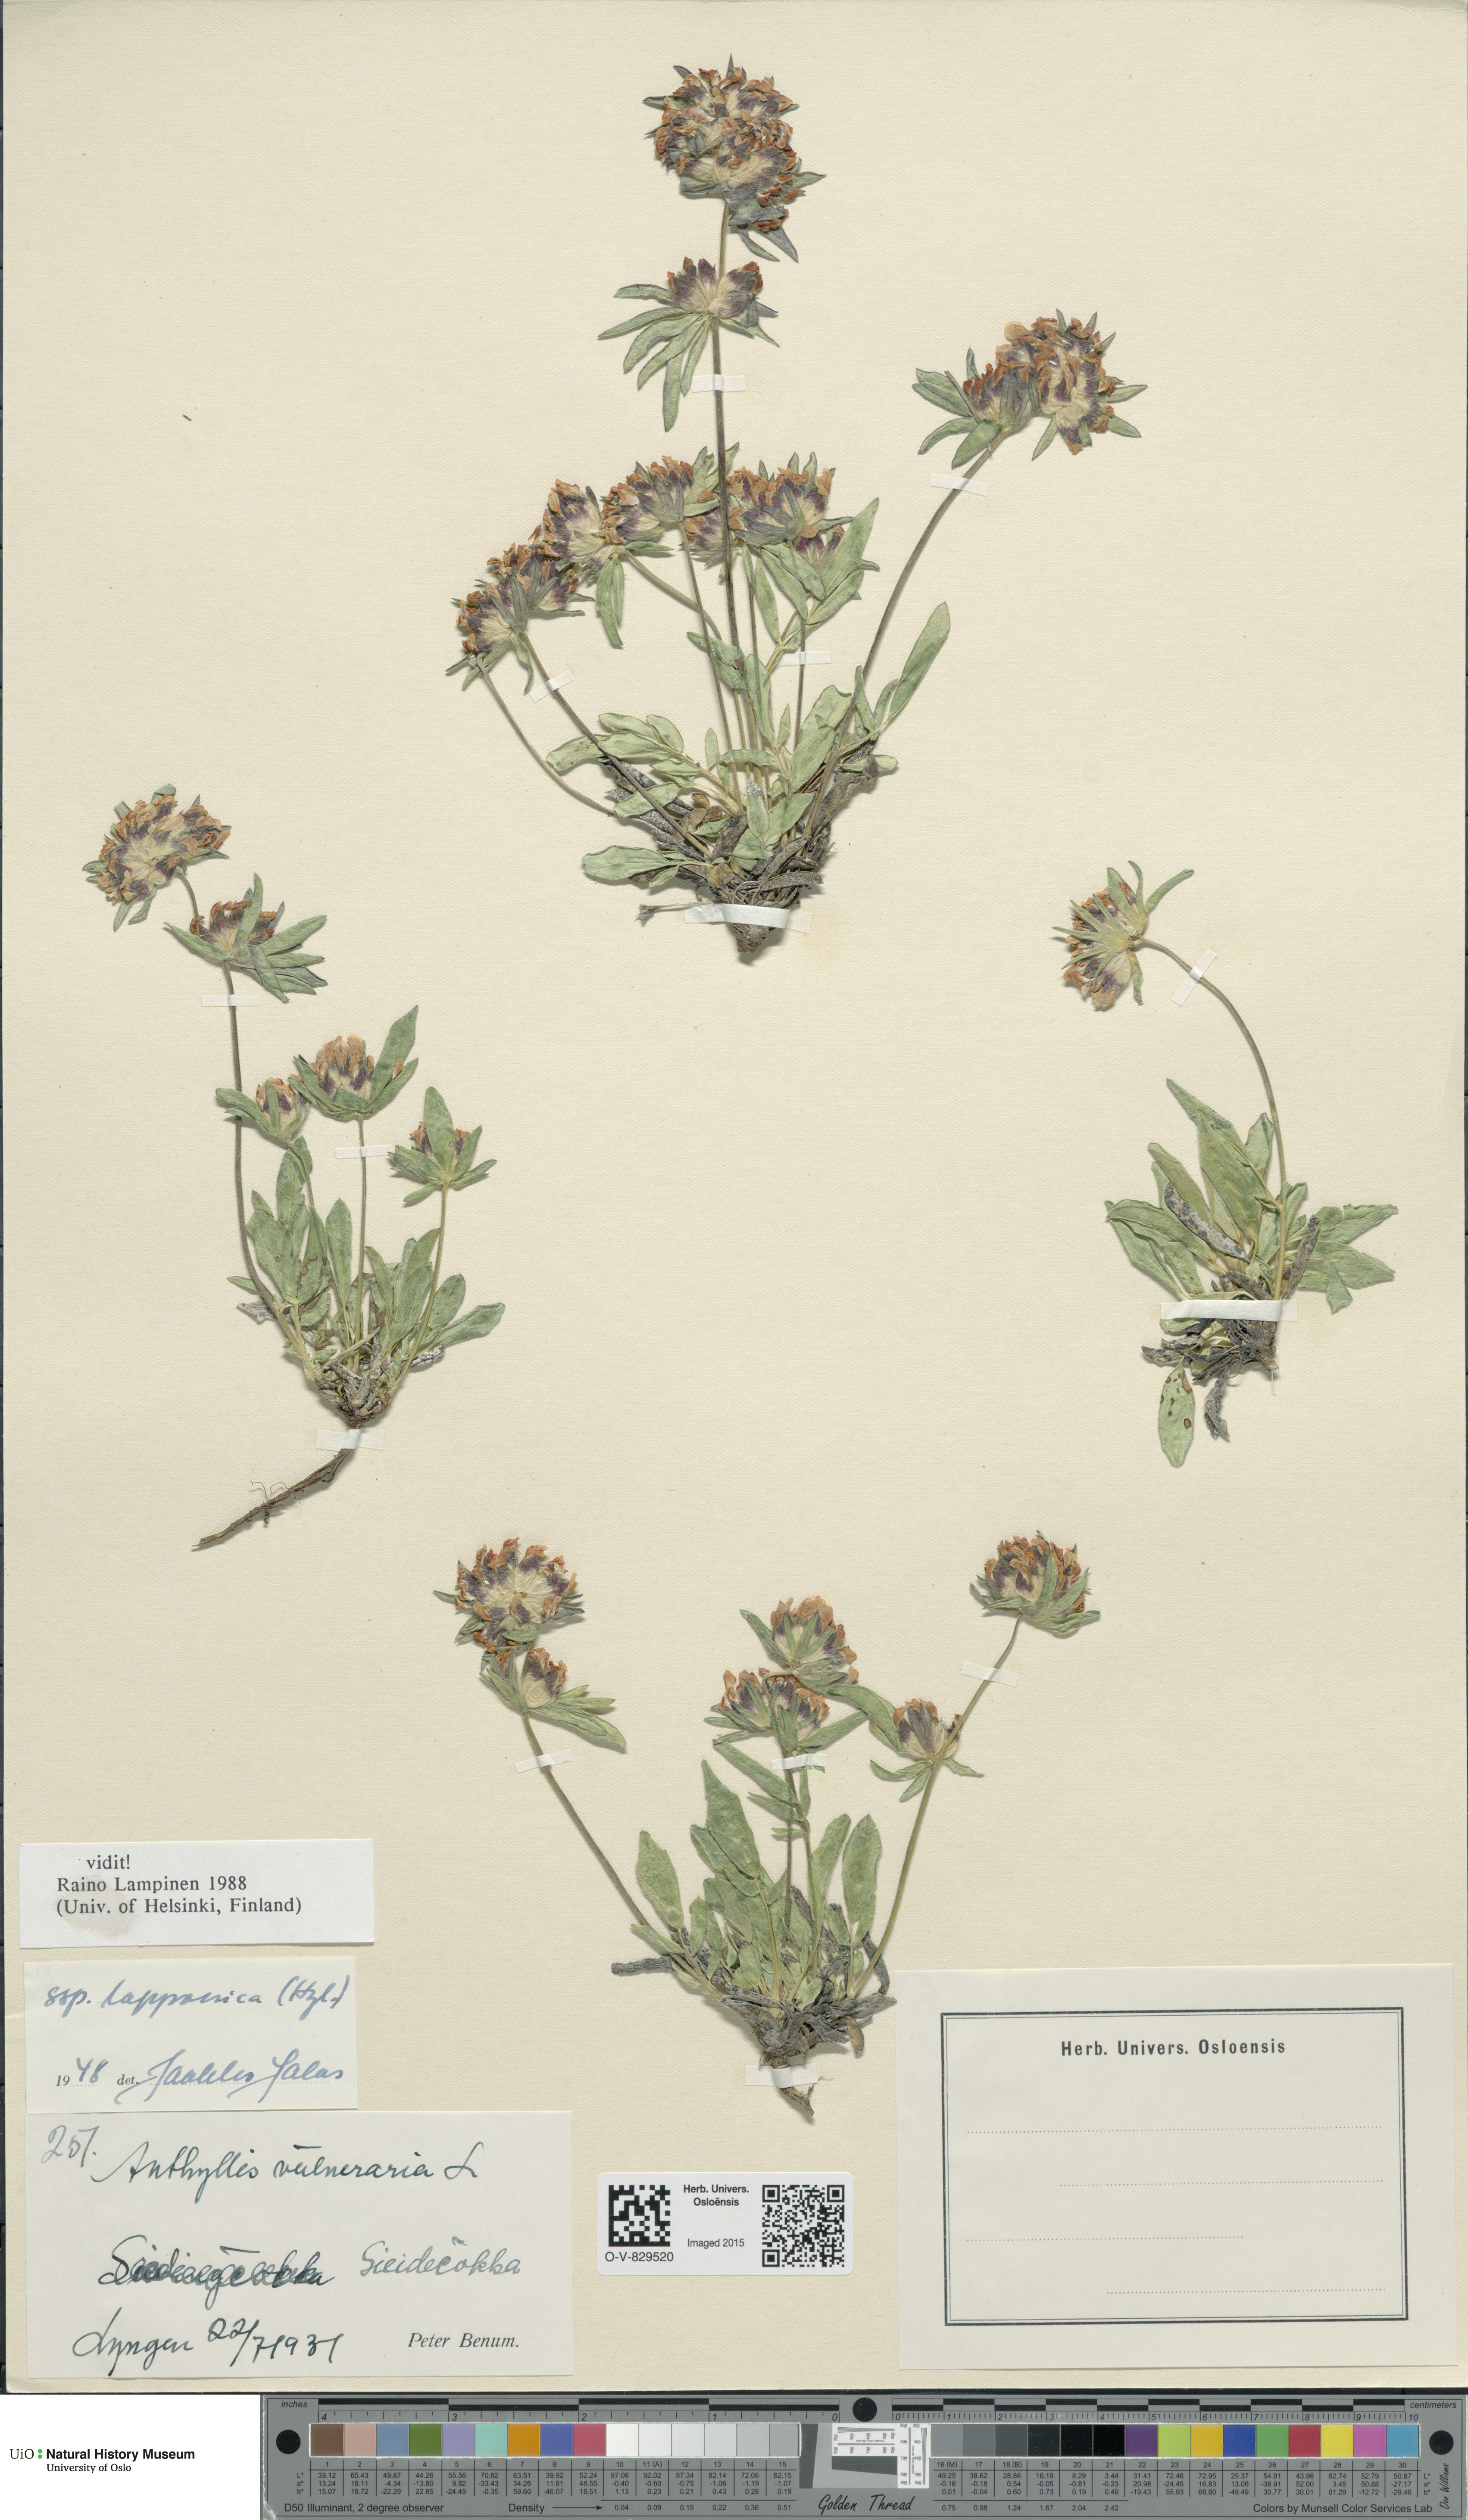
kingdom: Plantae
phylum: Tracheophyta
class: Magnoliopsida
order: Fabales
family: Fabaceae
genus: Anthyllis
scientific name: Anthyllis vulneraria
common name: Kidney vetch
